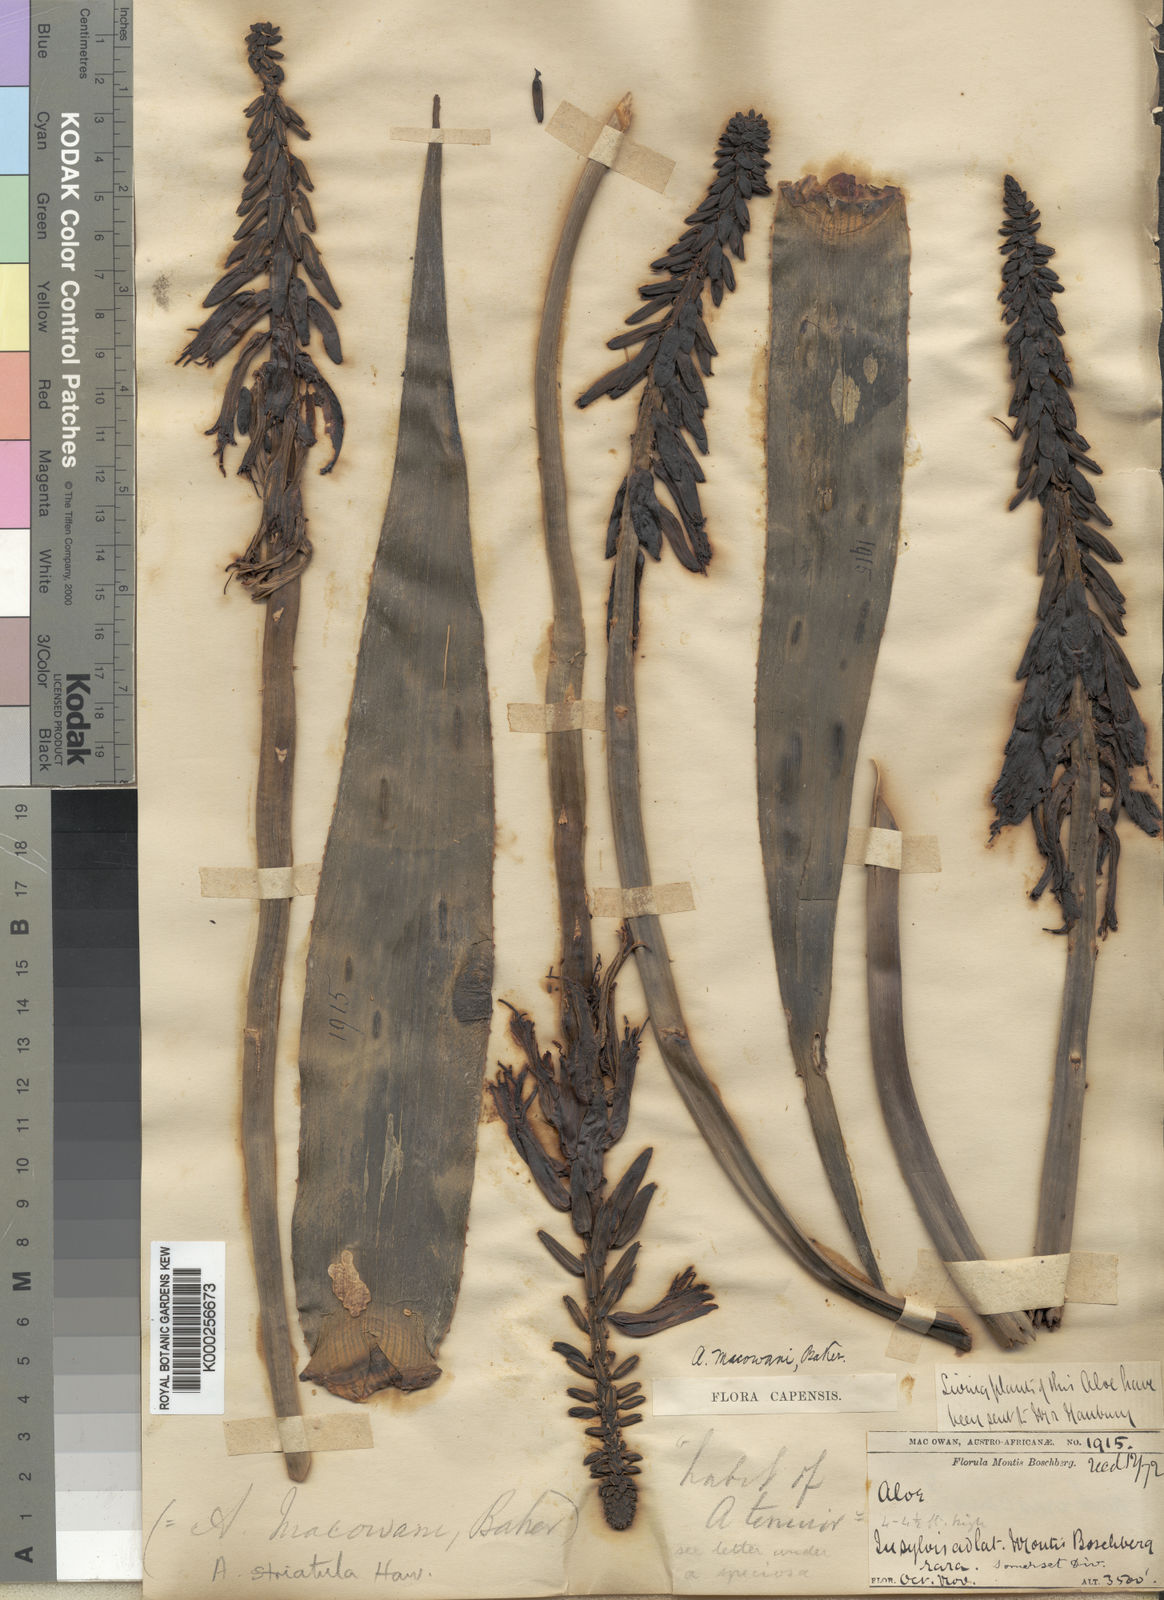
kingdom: Plantae
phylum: Tracheophyta
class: Liliopsida
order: Asparagales
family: Asphodelaceae
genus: Aloiampelos
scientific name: Aloiampelos striatula
